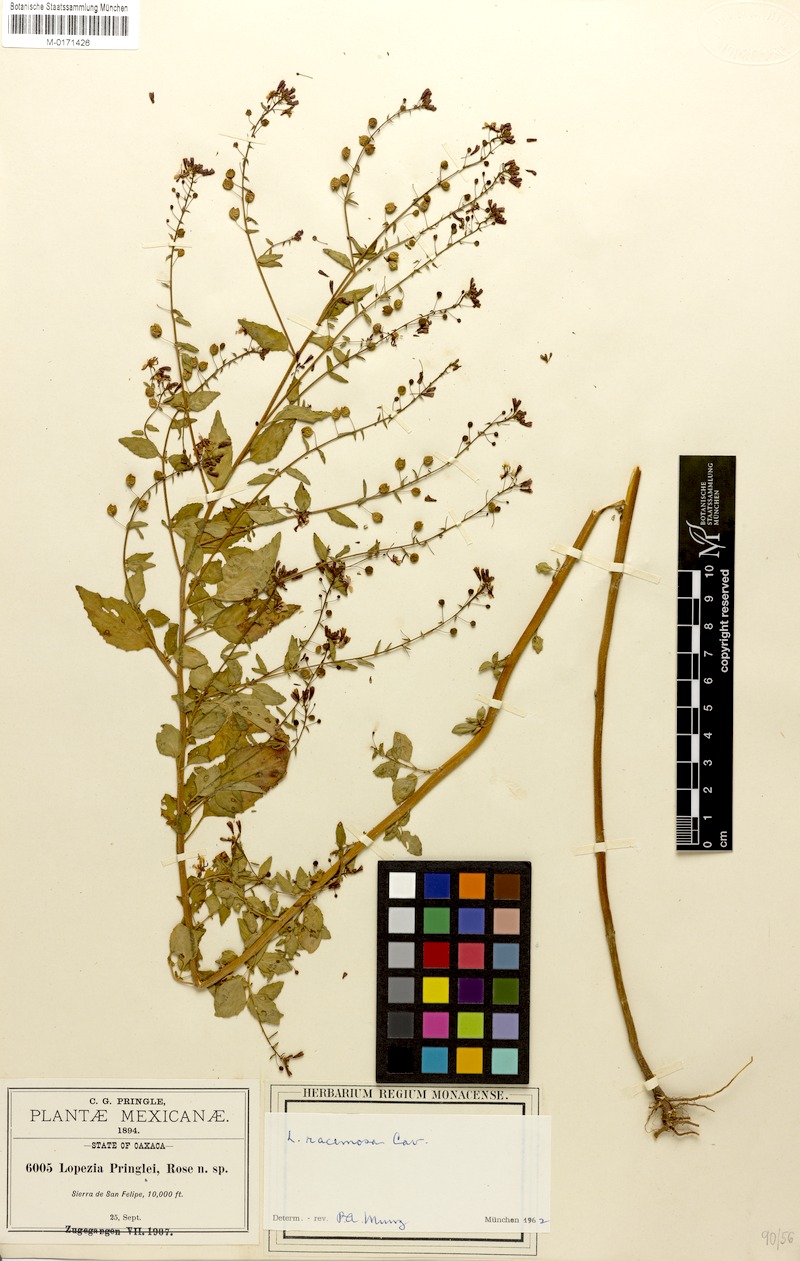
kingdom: Plantae
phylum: Tracheophyta
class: Magnoliopsida
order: Myrtales
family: Onagraceae
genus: Lopezia
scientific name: Lopezia racemosa
